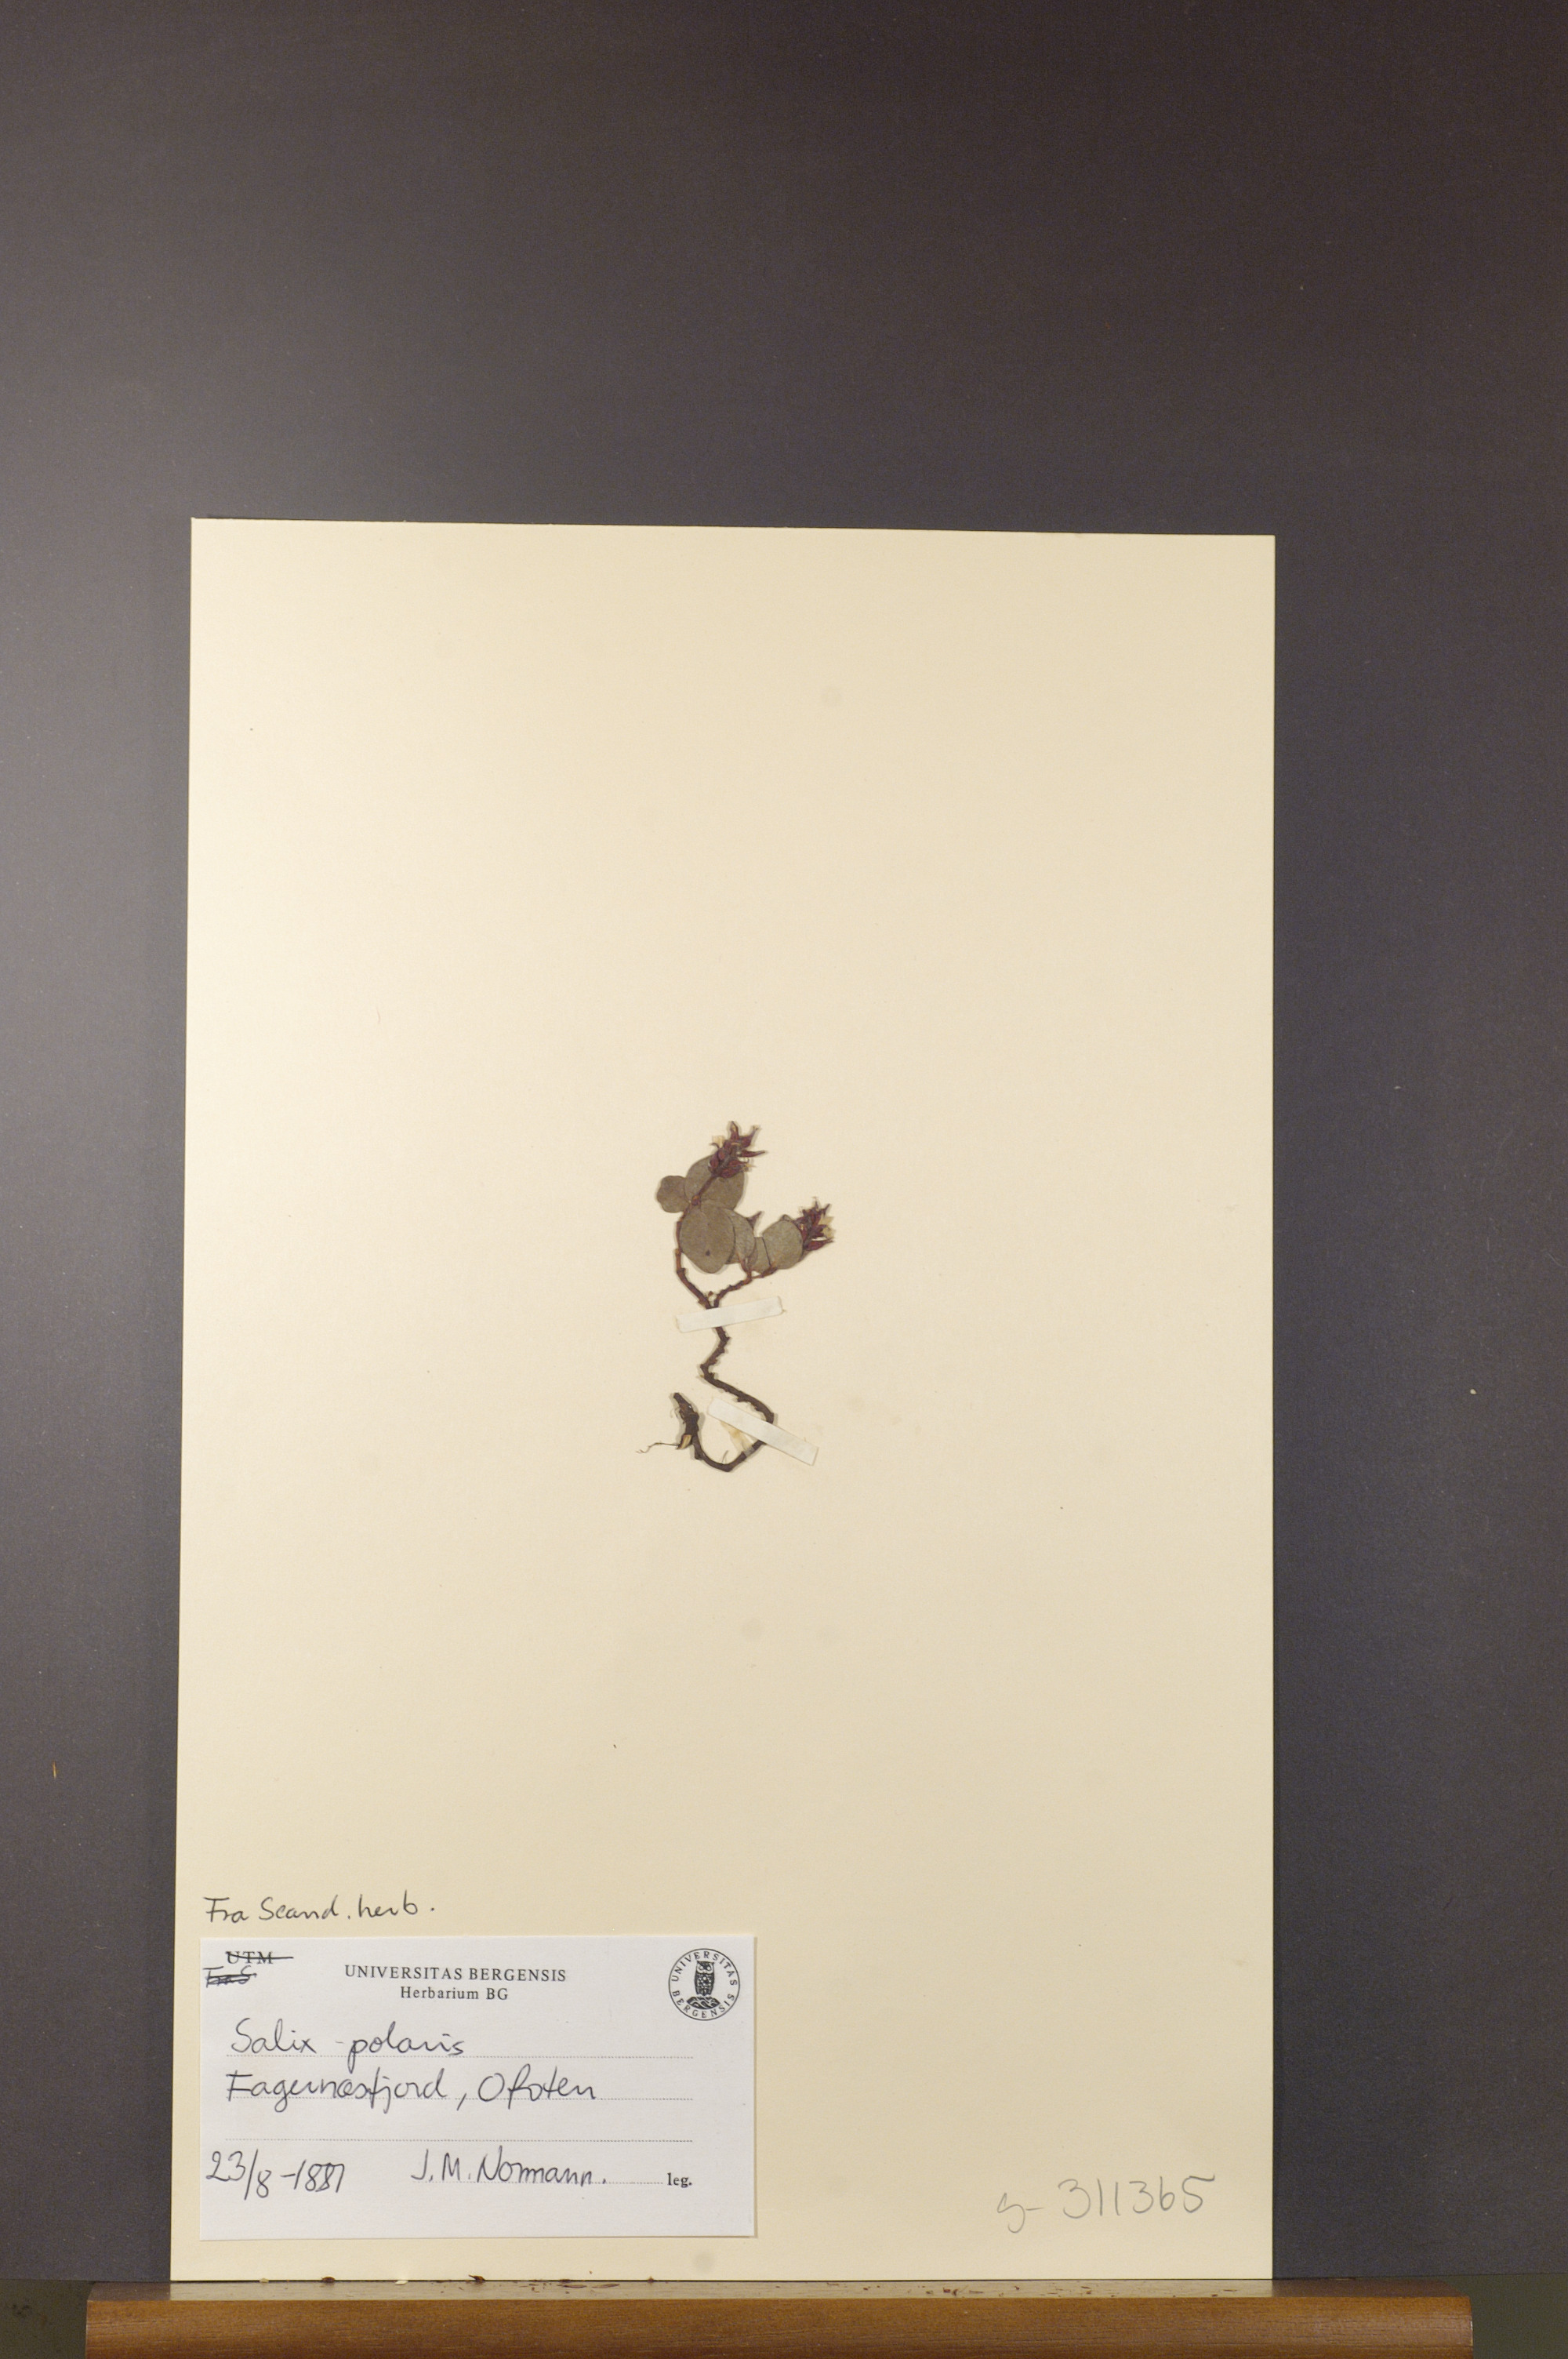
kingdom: Plantae
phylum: Tracheophyta
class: Magnoliopsida
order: Malpighiales
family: Salicaceae
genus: Salix
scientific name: Salix polaris
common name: Polar willow
